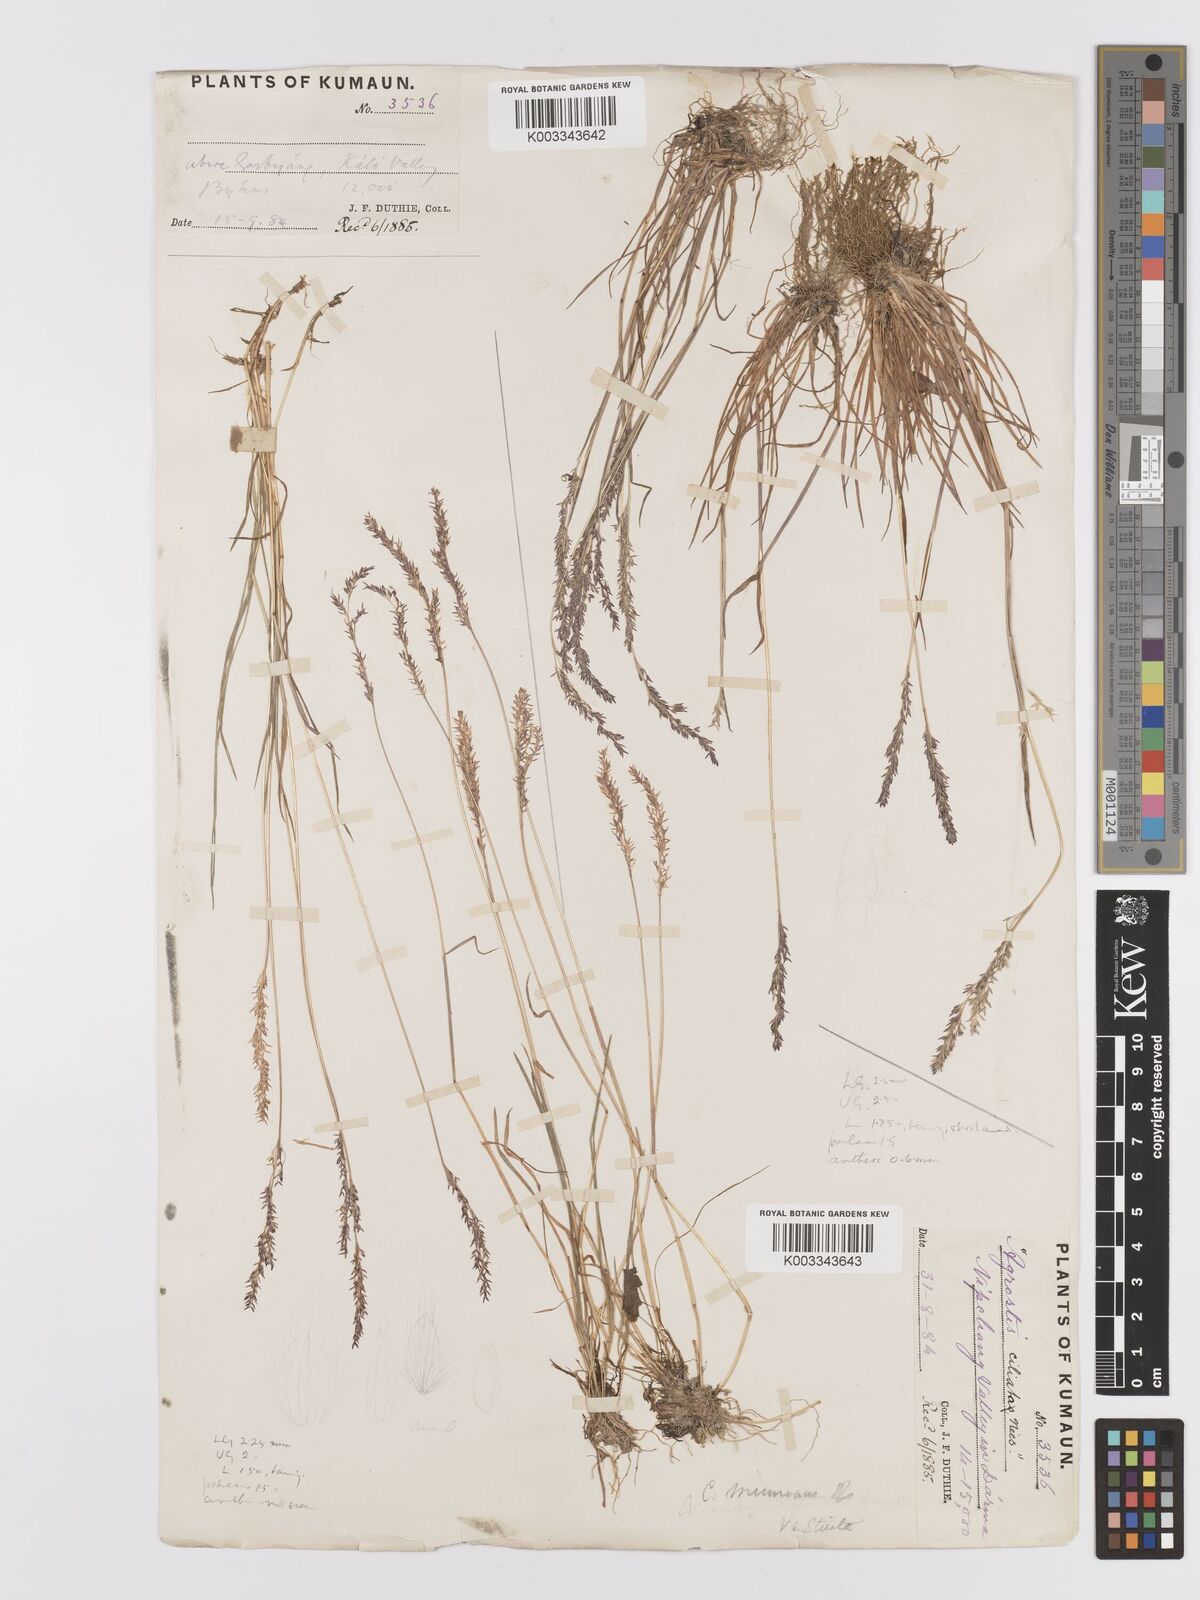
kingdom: Plantae
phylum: Tracheophyta
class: Liliopsida
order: Poales
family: Poaceae
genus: Agrostis
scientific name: Agrostis munroana
